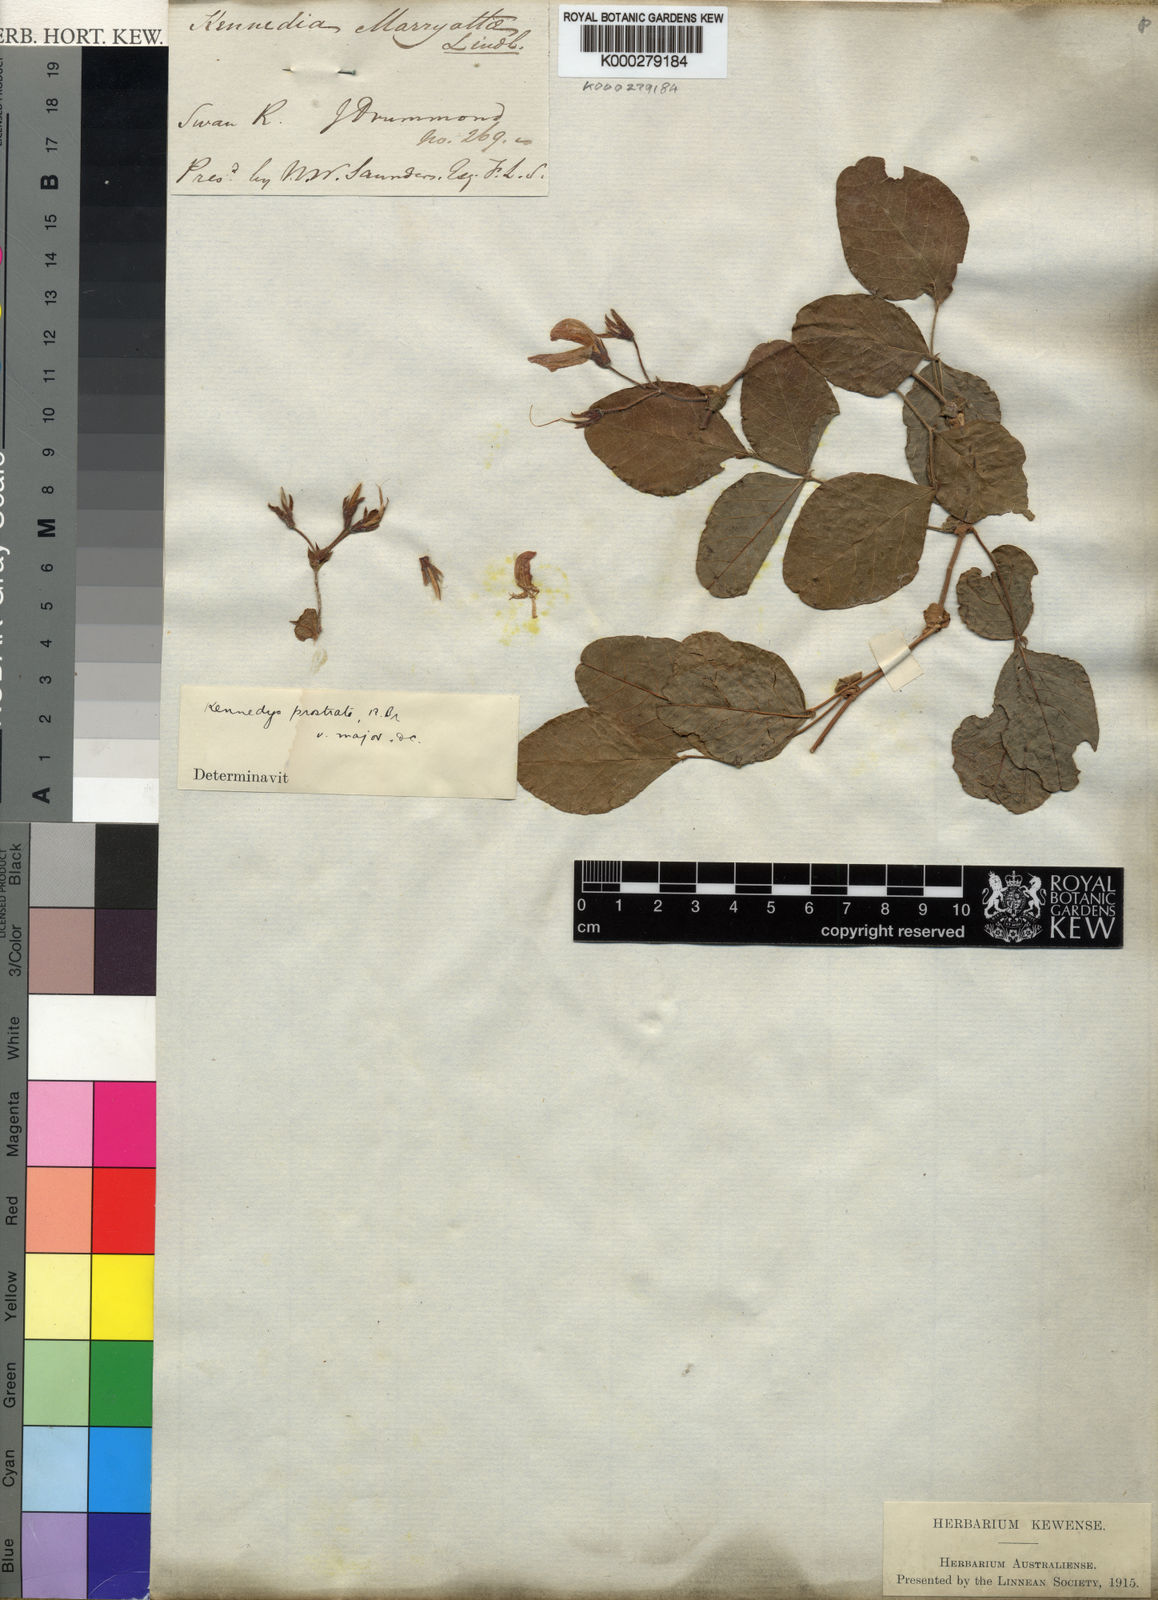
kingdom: Plantae
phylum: Tracheophyta
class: Magnoliopsida
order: Fabales
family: Fabaceae
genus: Kennedia
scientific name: Kennedia prostrata
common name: Running-postman
